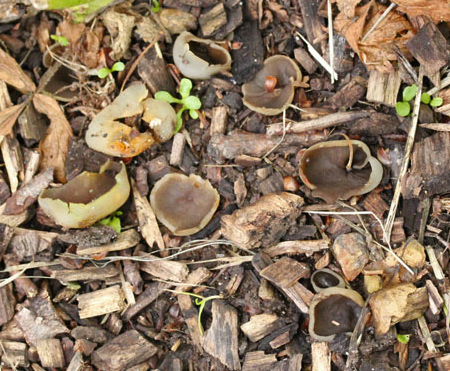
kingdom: Fungi
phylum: Ascomycota
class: Pezizomycetes
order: Pezizales
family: Pezizaceae
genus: Paragalactinia
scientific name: Paragalactinia succosa
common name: gulmælket bægersvamp
